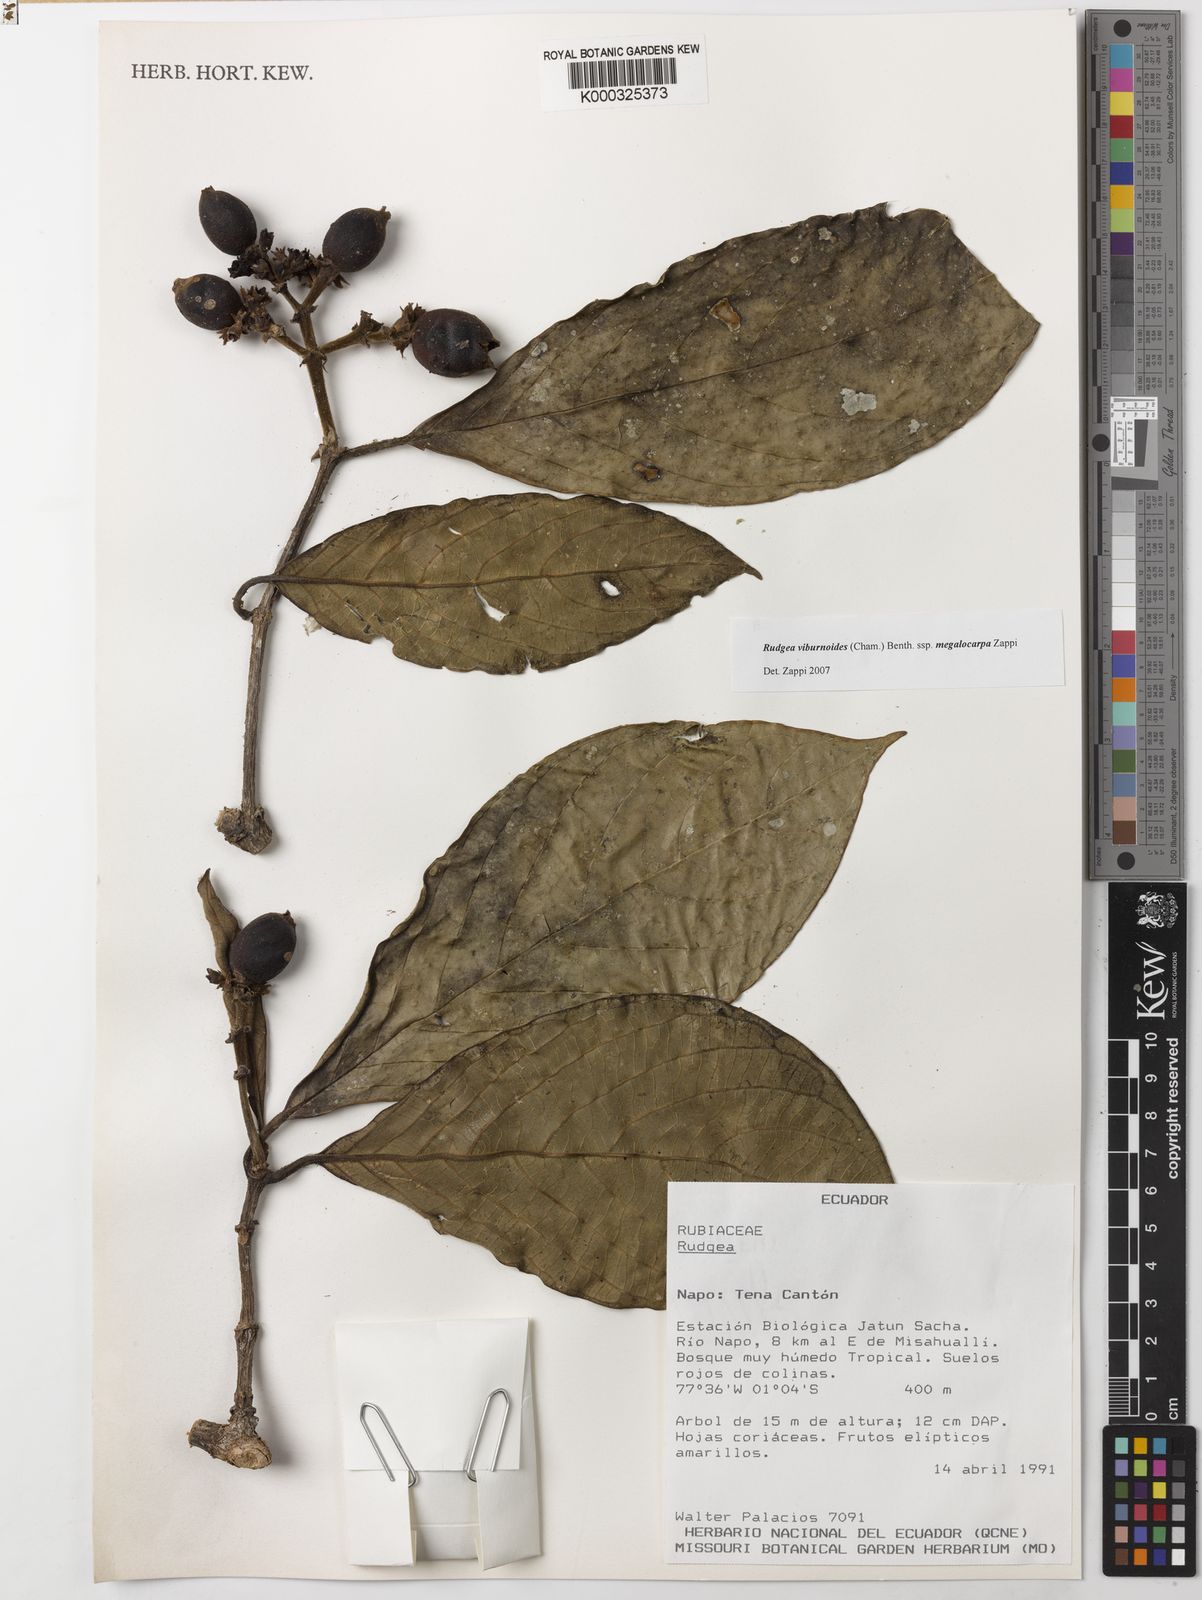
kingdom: Plantae
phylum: Tracheophyta
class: Magnoliopsida
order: Gentianales
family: Rubiaceae
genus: Rudgea
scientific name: Rudgea viburnoides
